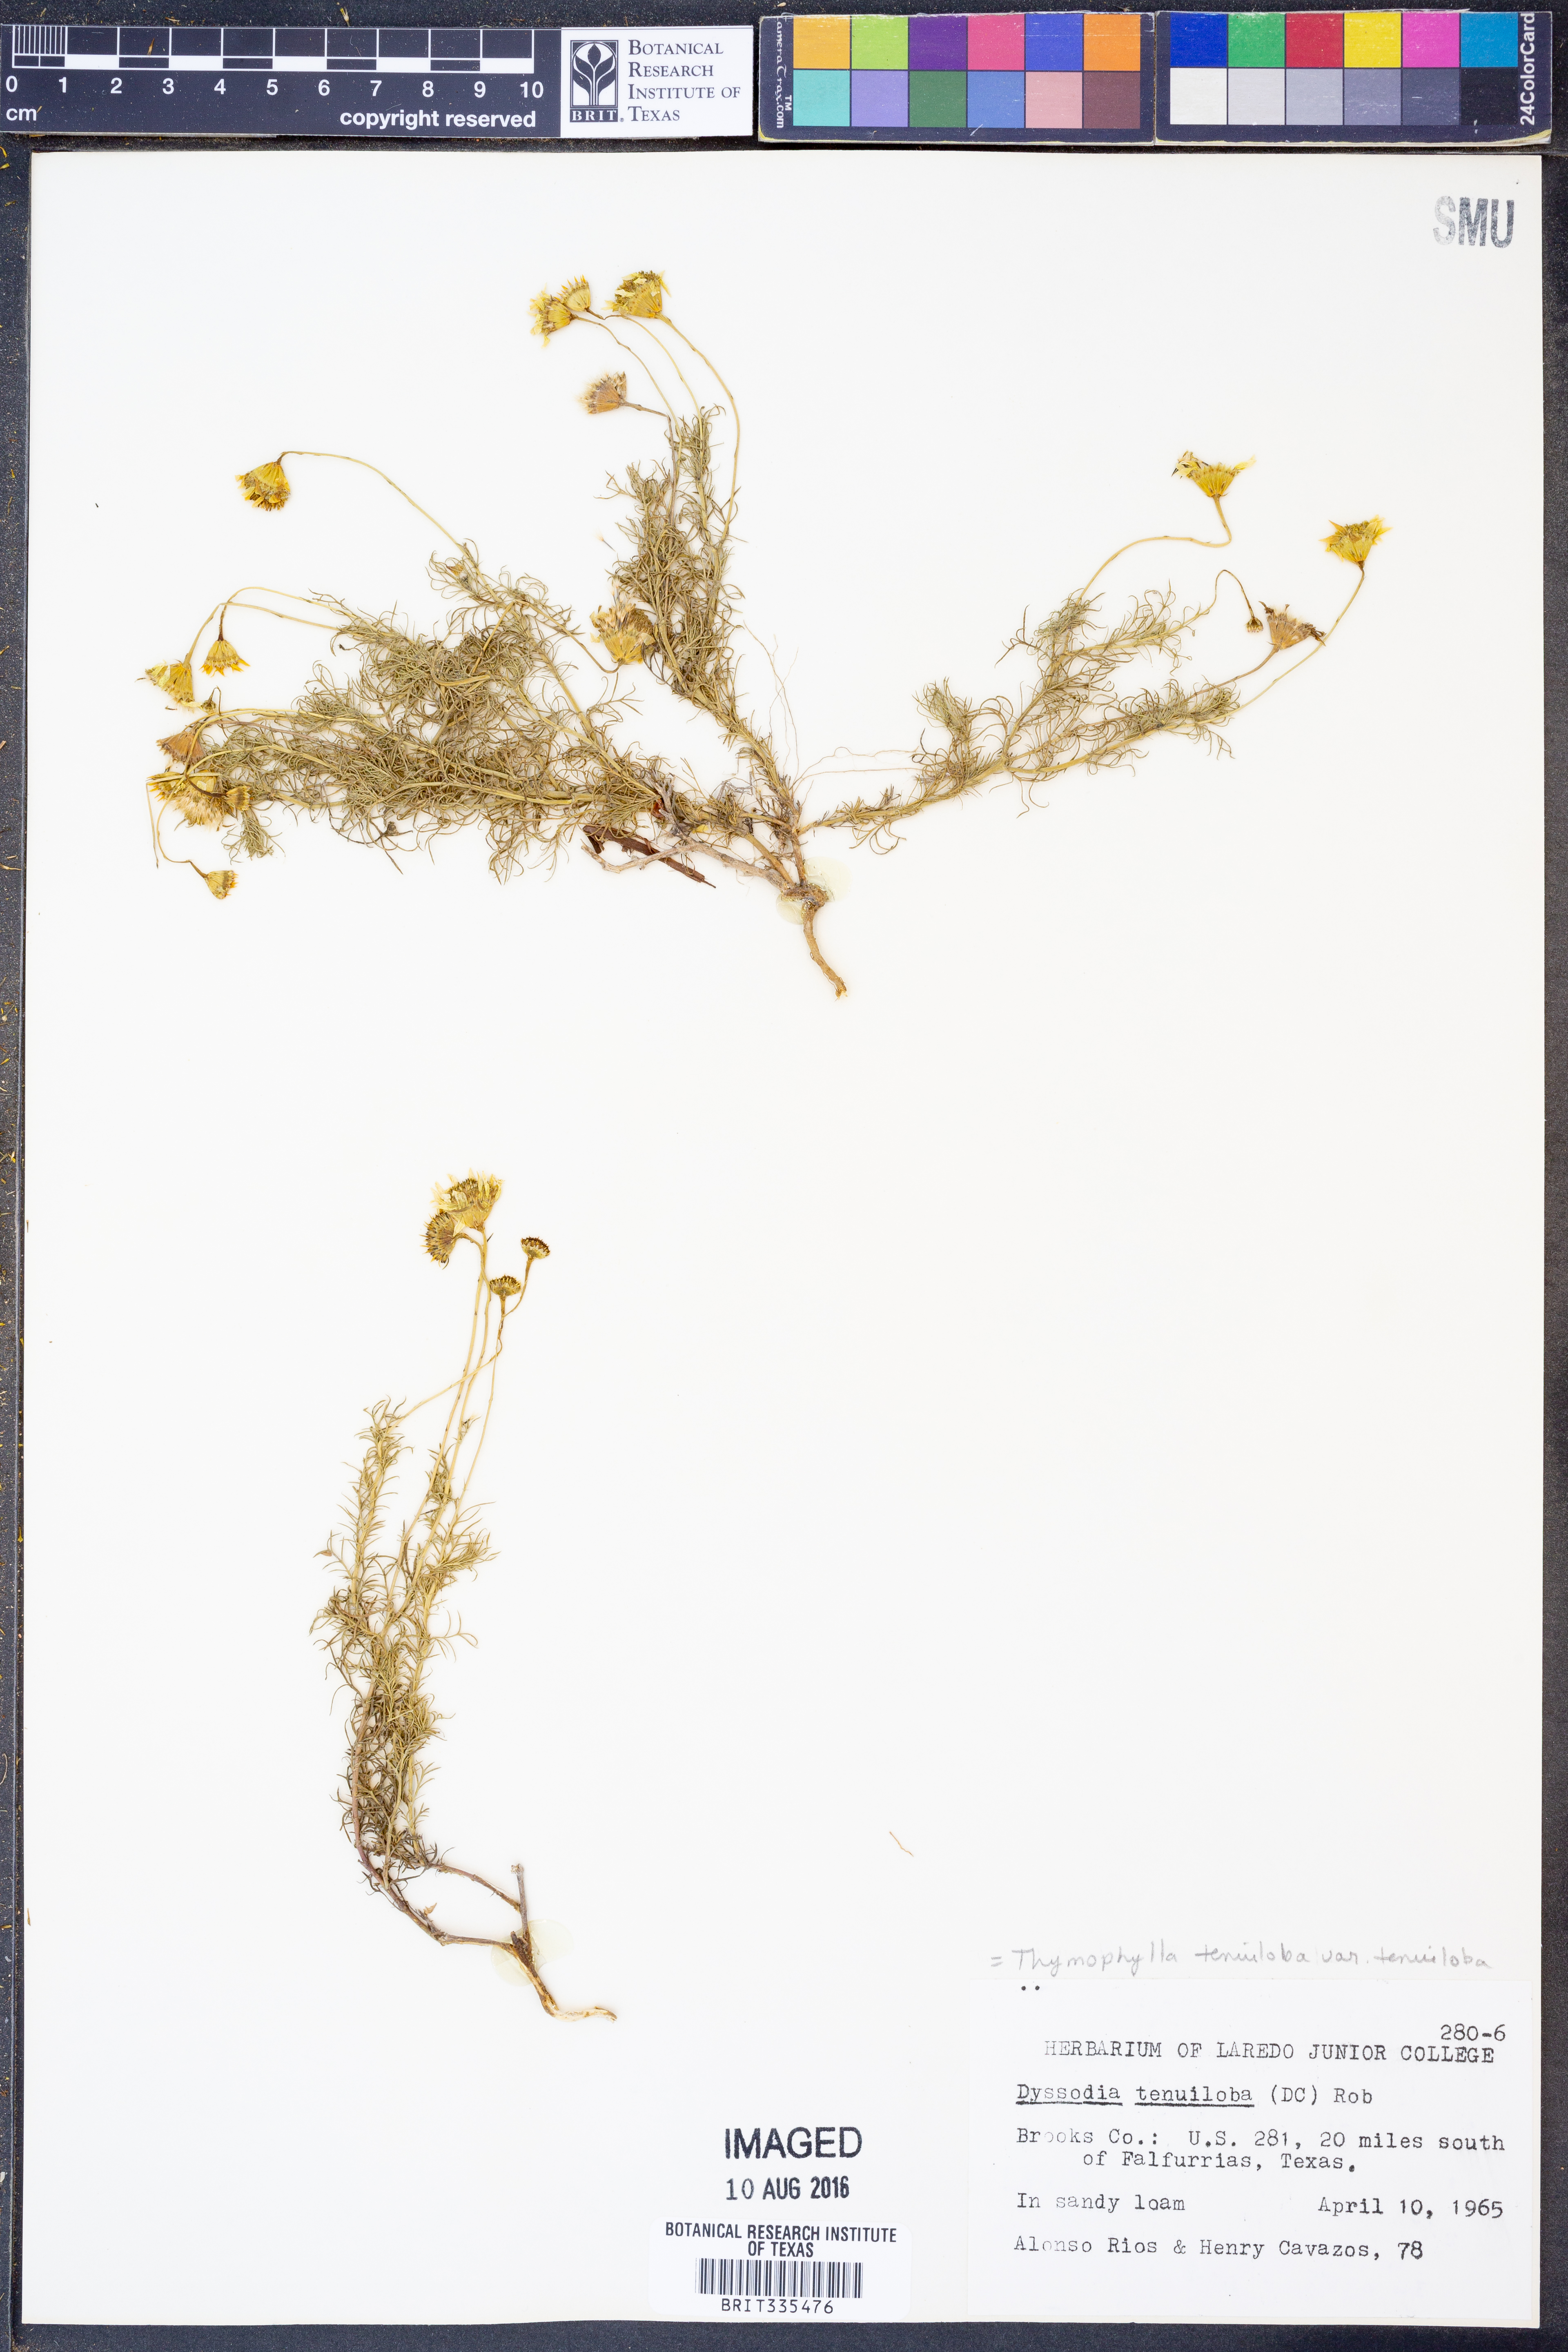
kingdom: Plantae
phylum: Tracheophyta
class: Magnoliopsida
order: Asterales
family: Asteraceae
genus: Thymophylla
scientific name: Thymophylla tenuiloba
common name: Dahlberg's daisy
